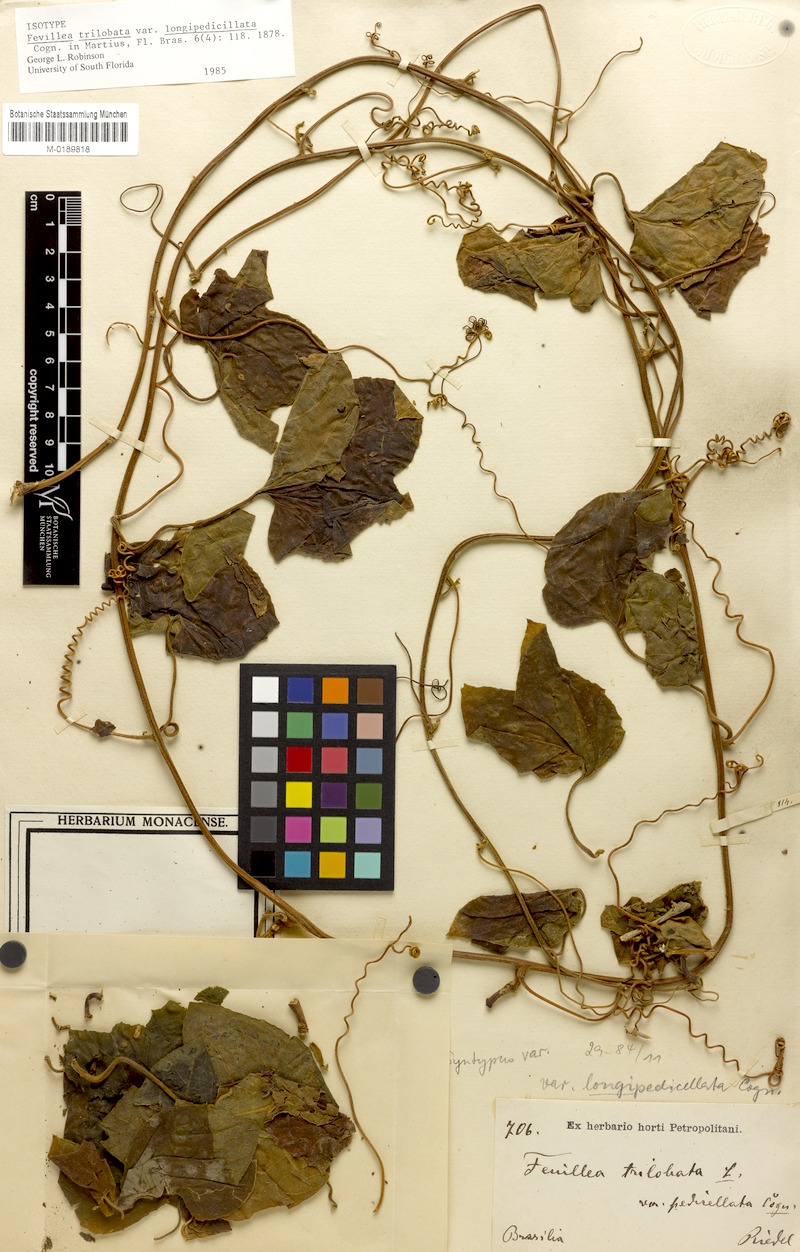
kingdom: Plantae
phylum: Tracheophyta
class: Magnoliopsida
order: Cucurbitales
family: Cucurbitaceae
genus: Fevillea
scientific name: Fevillea trilobata
